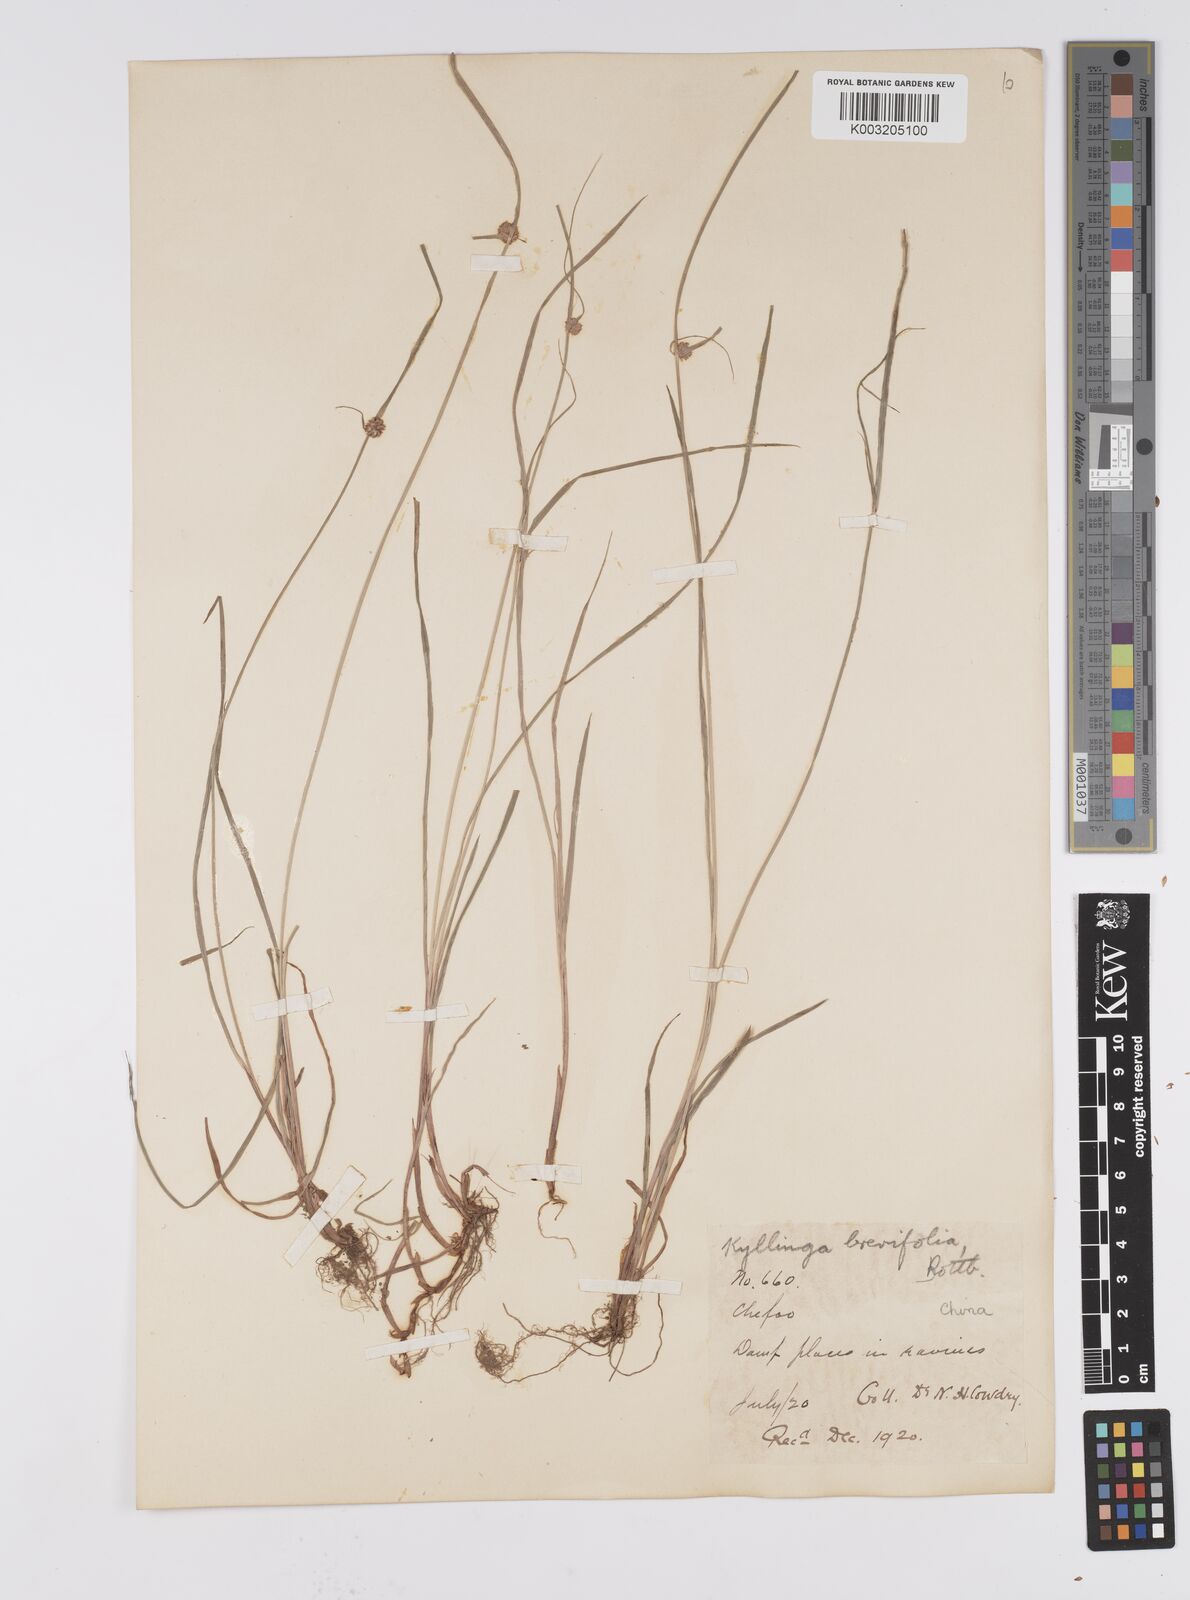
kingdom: Plantae
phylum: Tracheophyta
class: Liliopsida
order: Poales
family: Cyperaceae
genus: Cyperus
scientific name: Cyperus brevifolius
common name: Globe kyllinga
